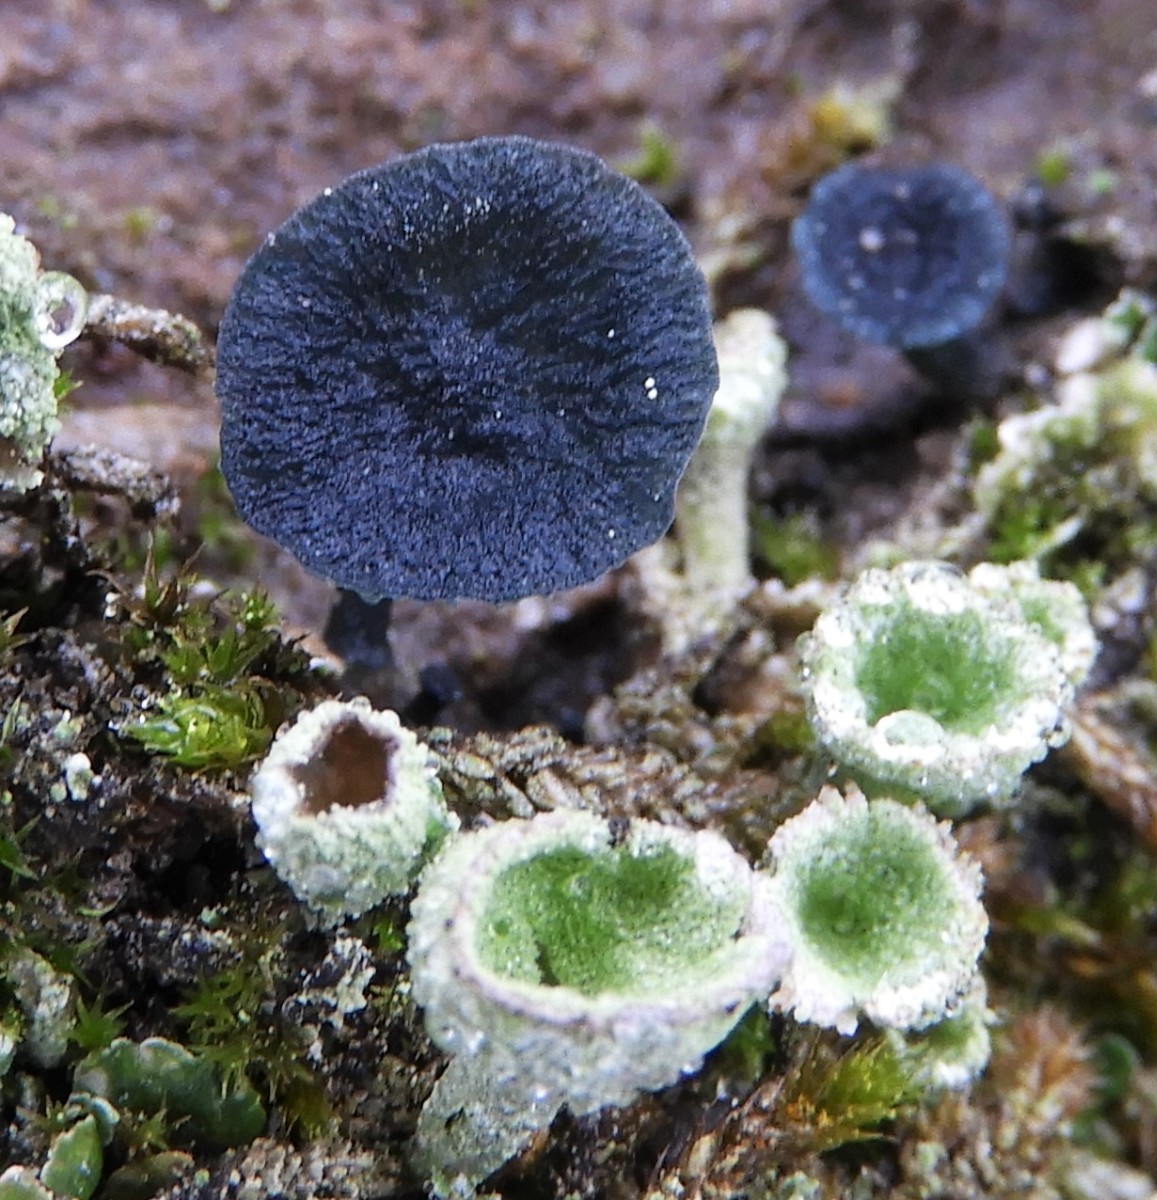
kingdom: Fungi
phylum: Basidiomycota
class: Agaricomycetes
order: Agaricales
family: Hygrophoraceae
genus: Arrhenia
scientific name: Arrhenia chlorocyanea
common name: blågrøn fontænehat
